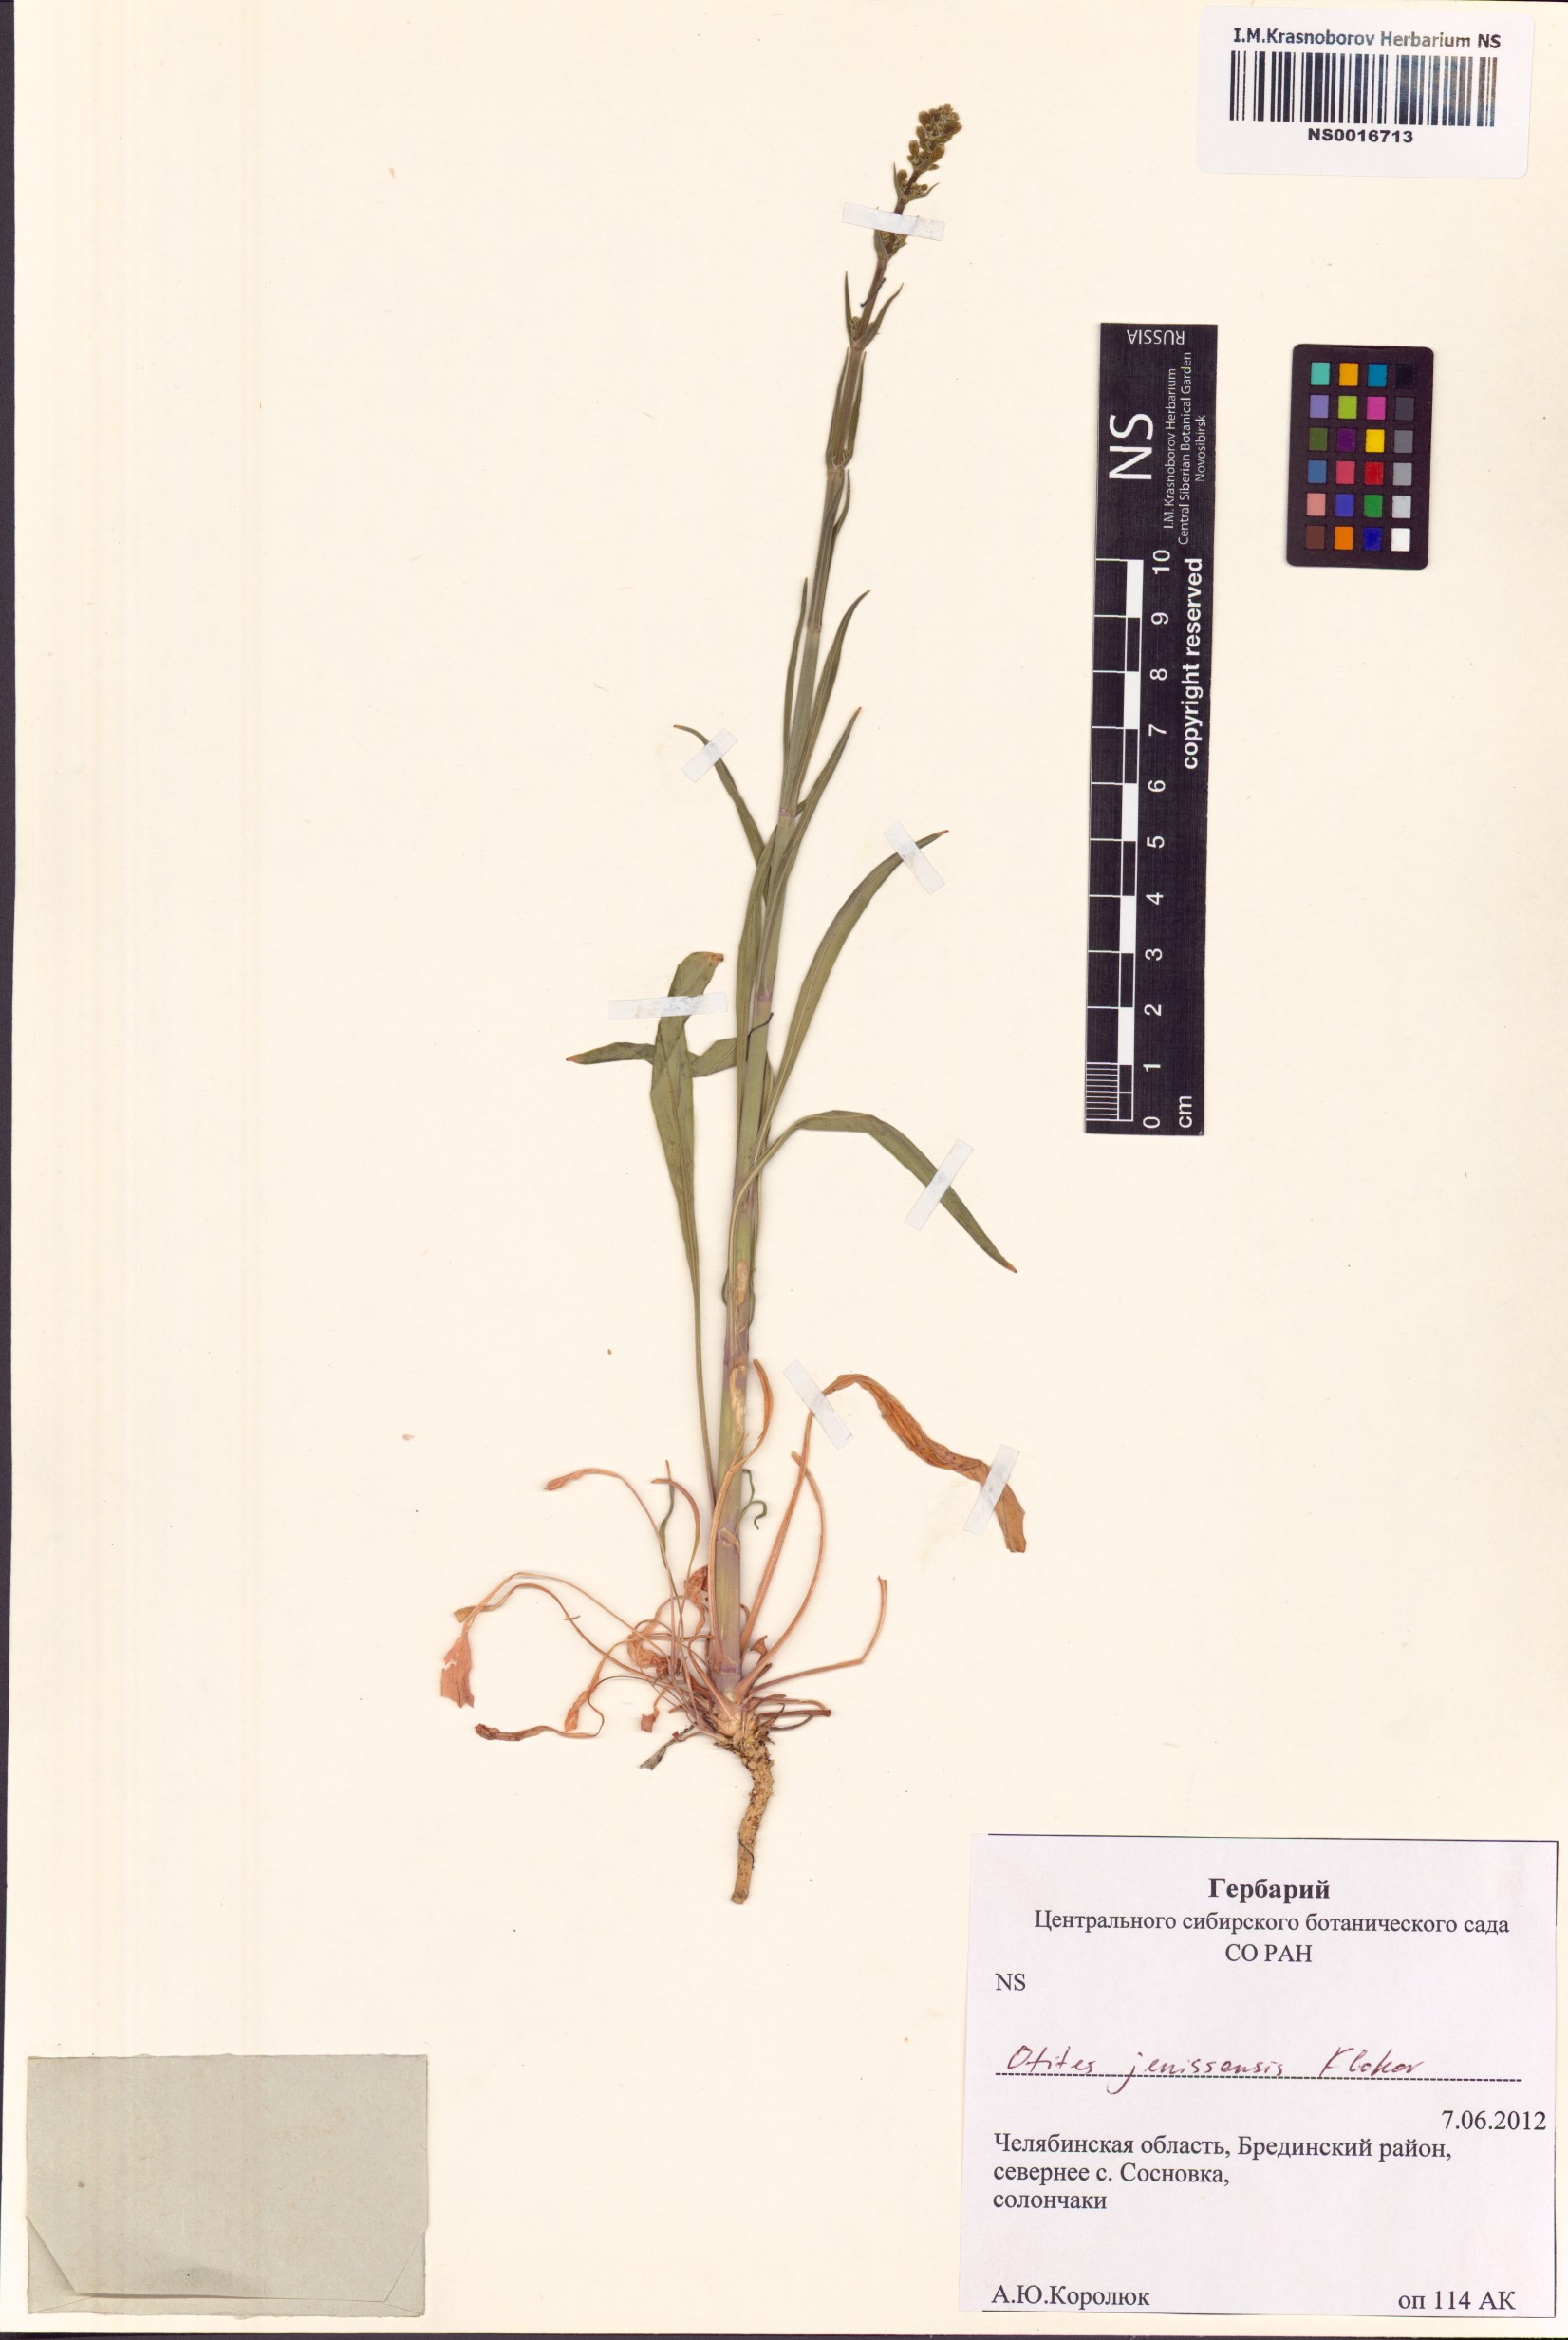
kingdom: Plantae
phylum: Tracheophyta
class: Magnoliopsida
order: Caryophyllales
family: Caryophyllaceae
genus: Silene
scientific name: Silene klokovii
